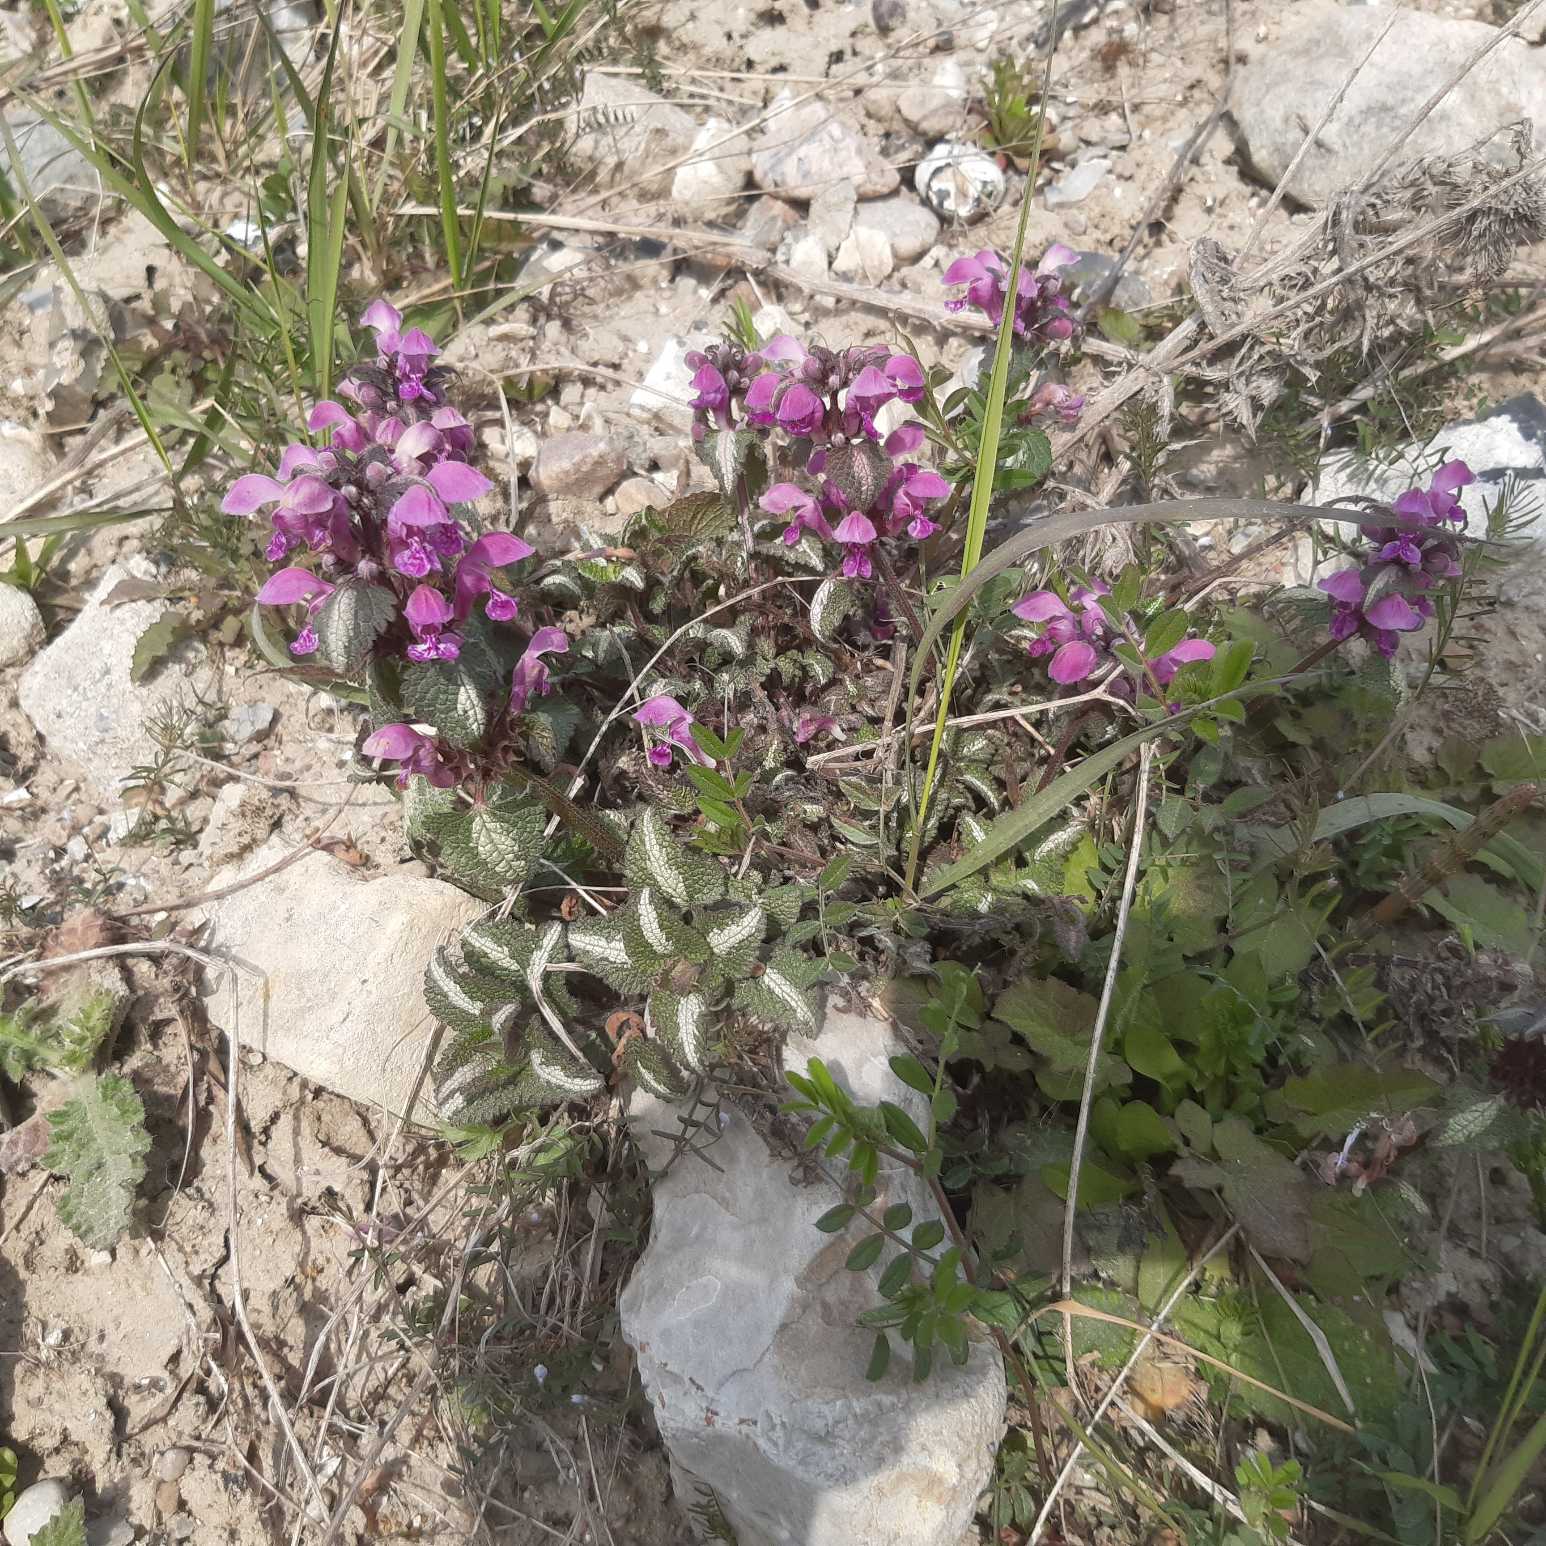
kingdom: Plantae
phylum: Tracheophyta
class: Magnoliopsida
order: Lamiales
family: Lamiaceae
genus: Lamium
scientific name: Lamium maculatum
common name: Plettet tvetand
